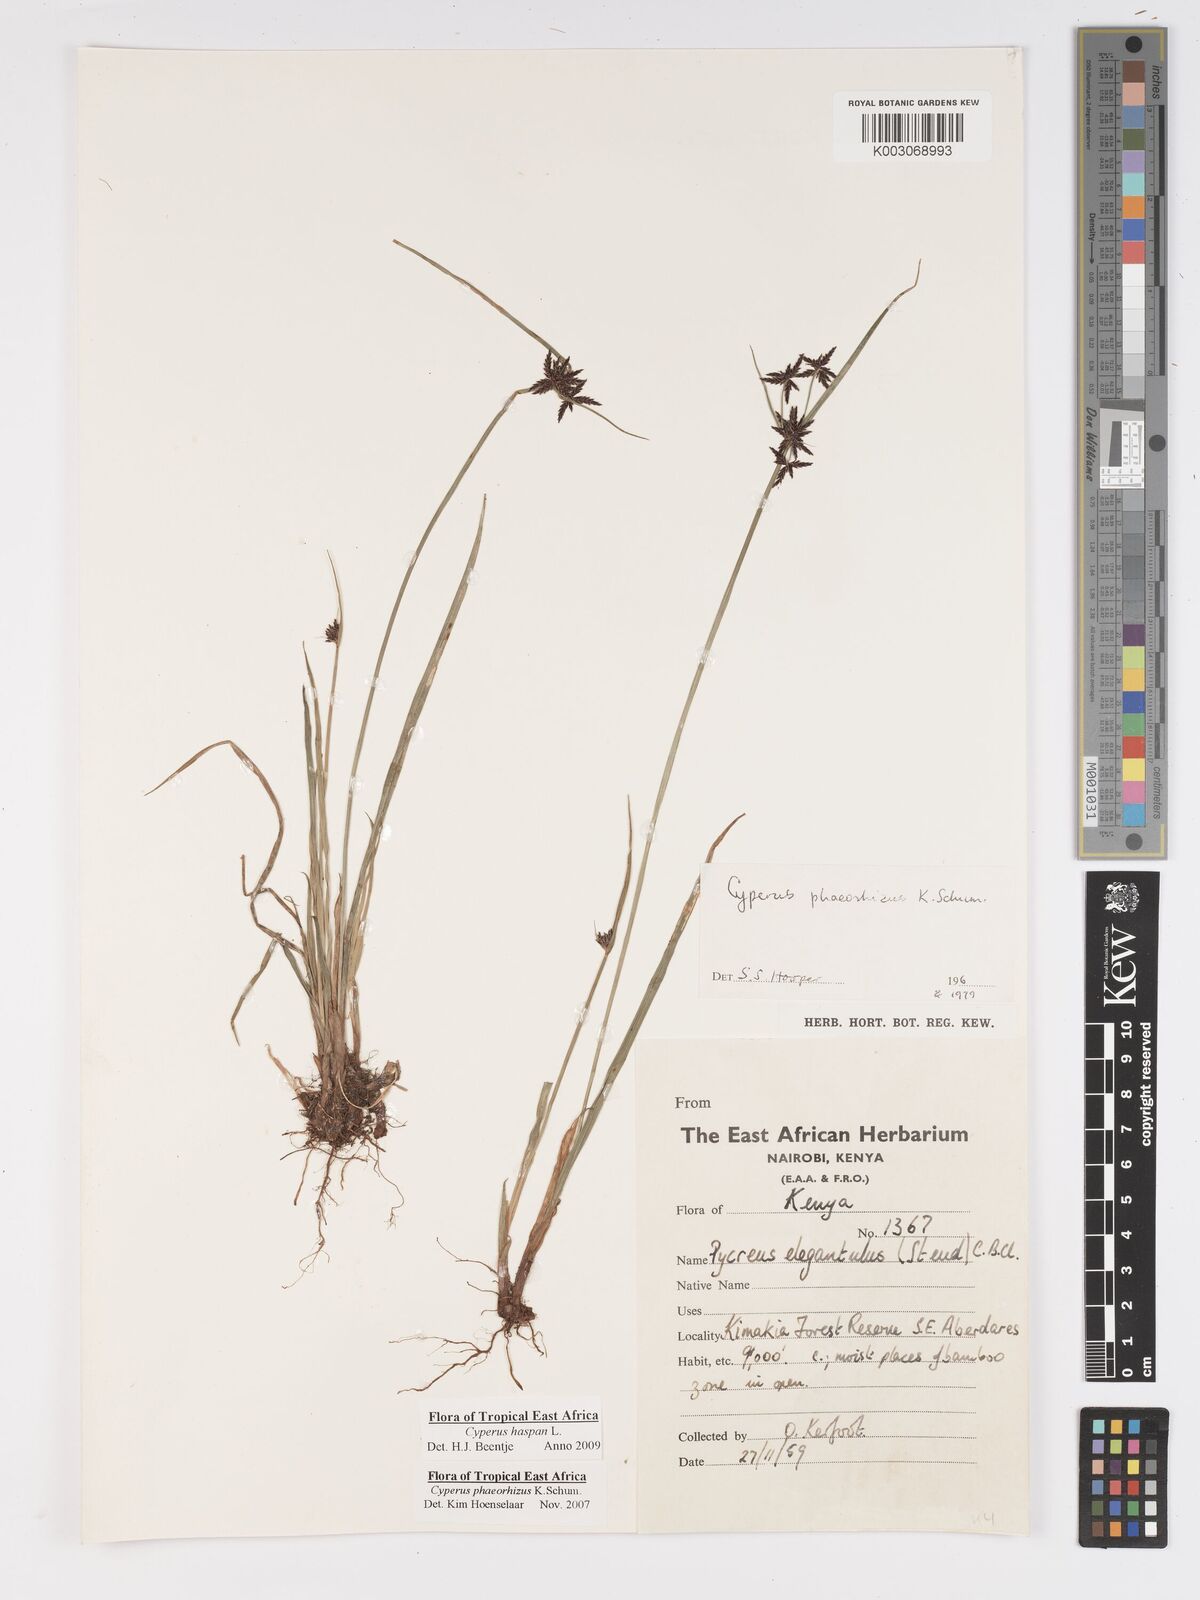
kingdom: Plantae
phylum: Tracheophyta
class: Liliopsida
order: Poales
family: Cyperaceae
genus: Cyperus
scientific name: Cyperus haspan
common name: Haspan flatsedge
